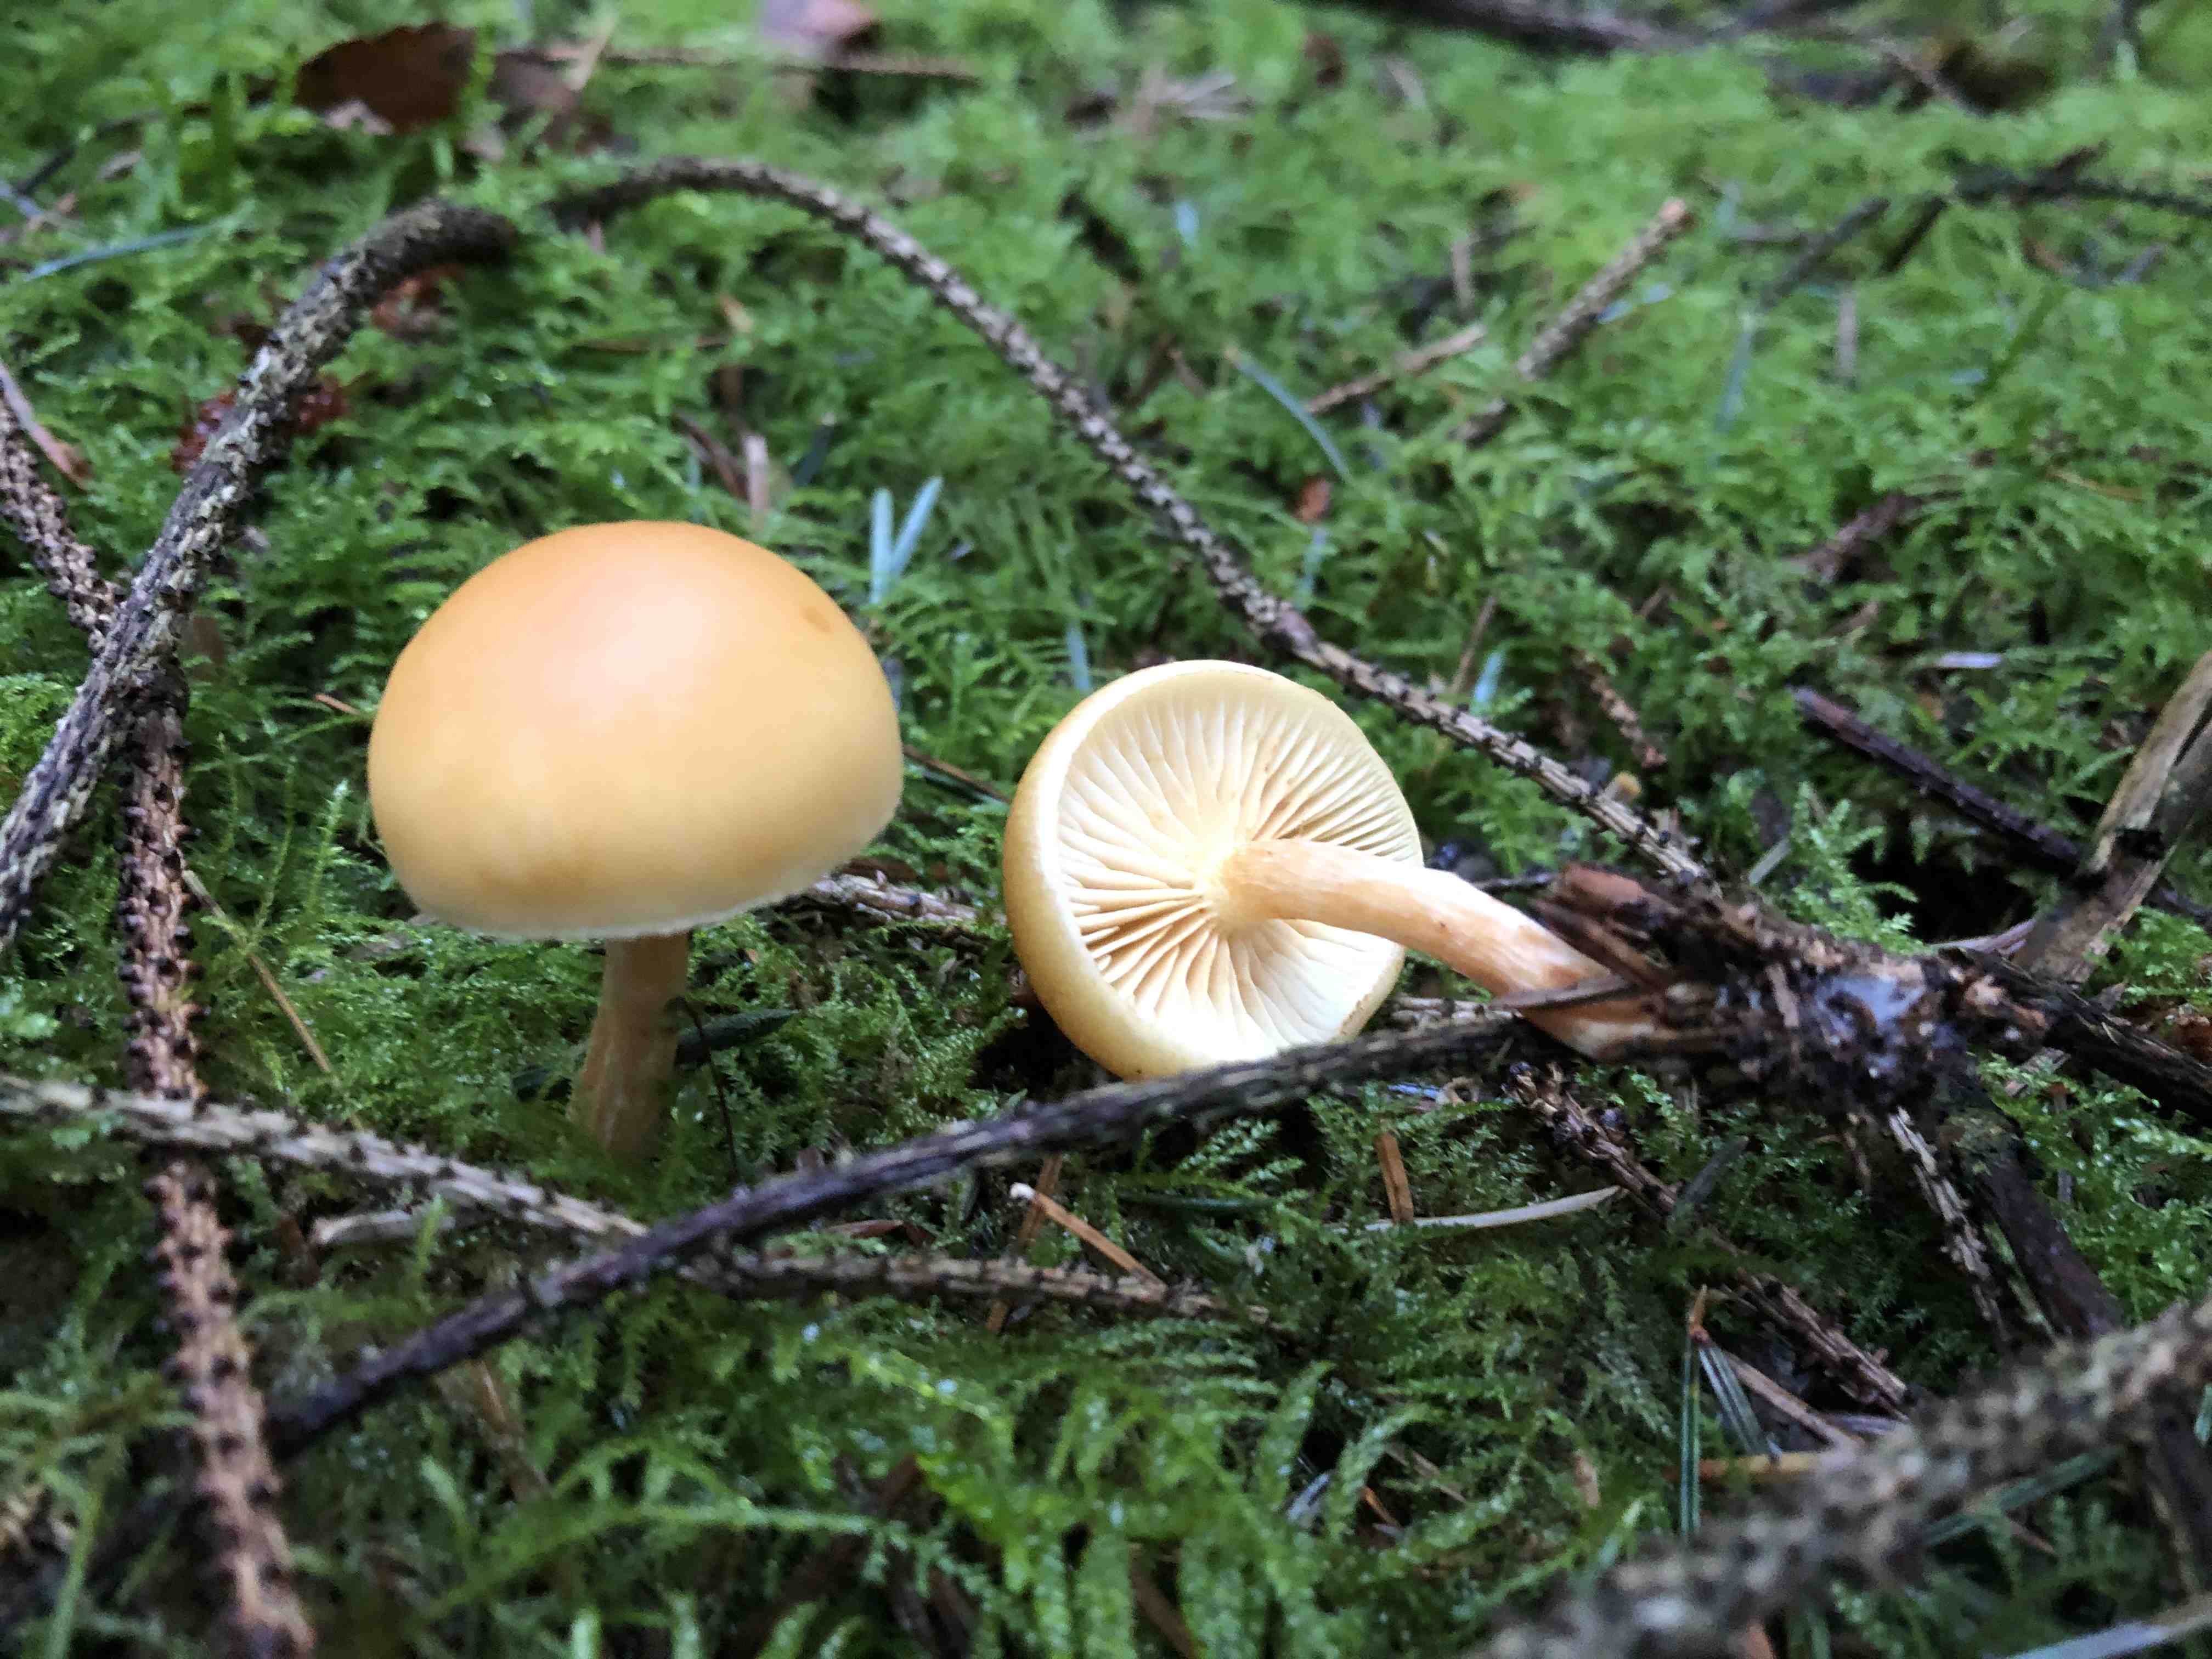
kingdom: Fungi
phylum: Basidiomycota
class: Agaricomycetes
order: Agaricales
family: Strophariaceae
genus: Hypholoma
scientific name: Hypholoma capnoides
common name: gran-svovlhat
